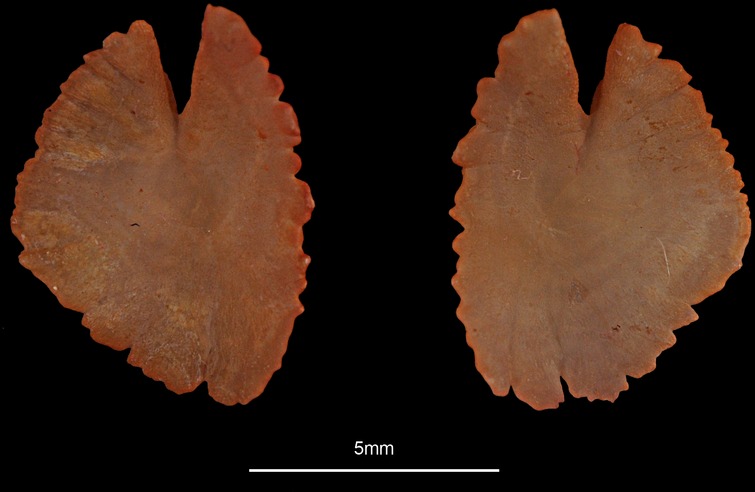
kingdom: Animalia
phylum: Chordata
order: Scorpaeniformes
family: Triglidae
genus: Chelidonichthys
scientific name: Chelidonichthys lucerna
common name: Tub gurnard
